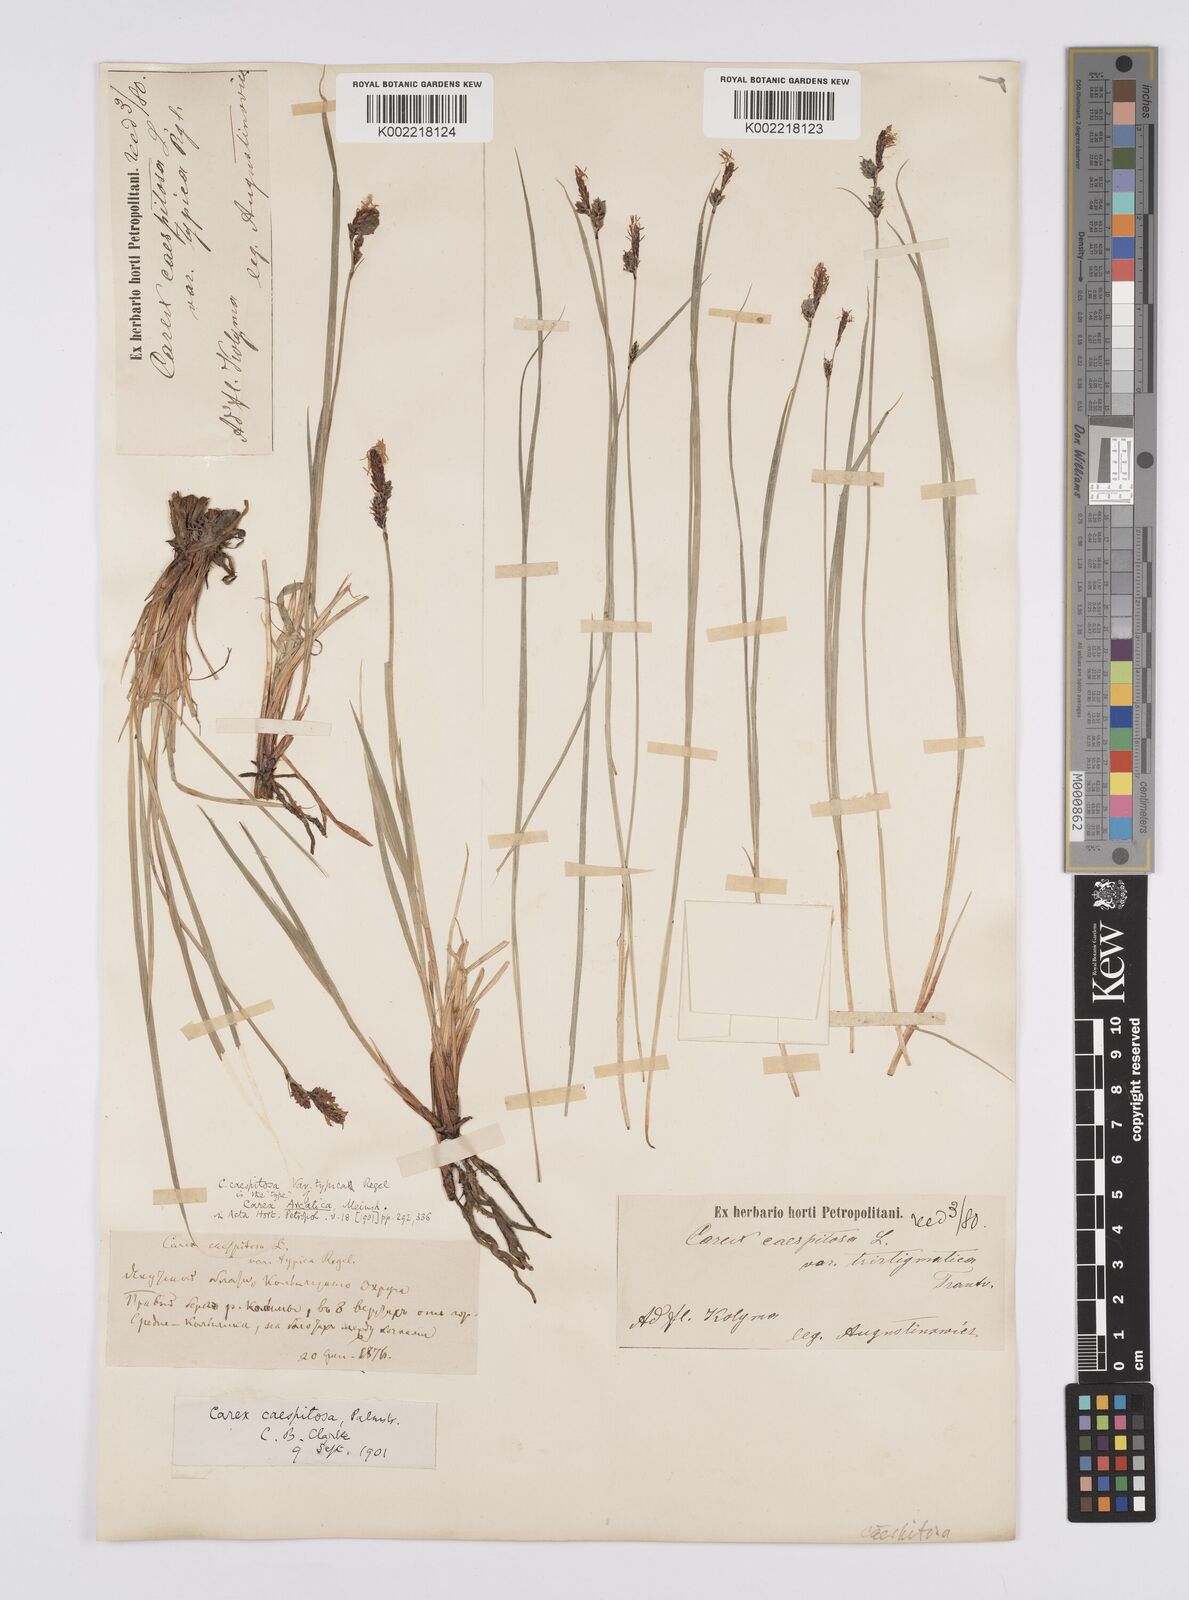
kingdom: Plantae
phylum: Tracheophyta
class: Liliopsida
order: Poales
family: Cyperaceae
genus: Carex
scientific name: Carex orbicularis
